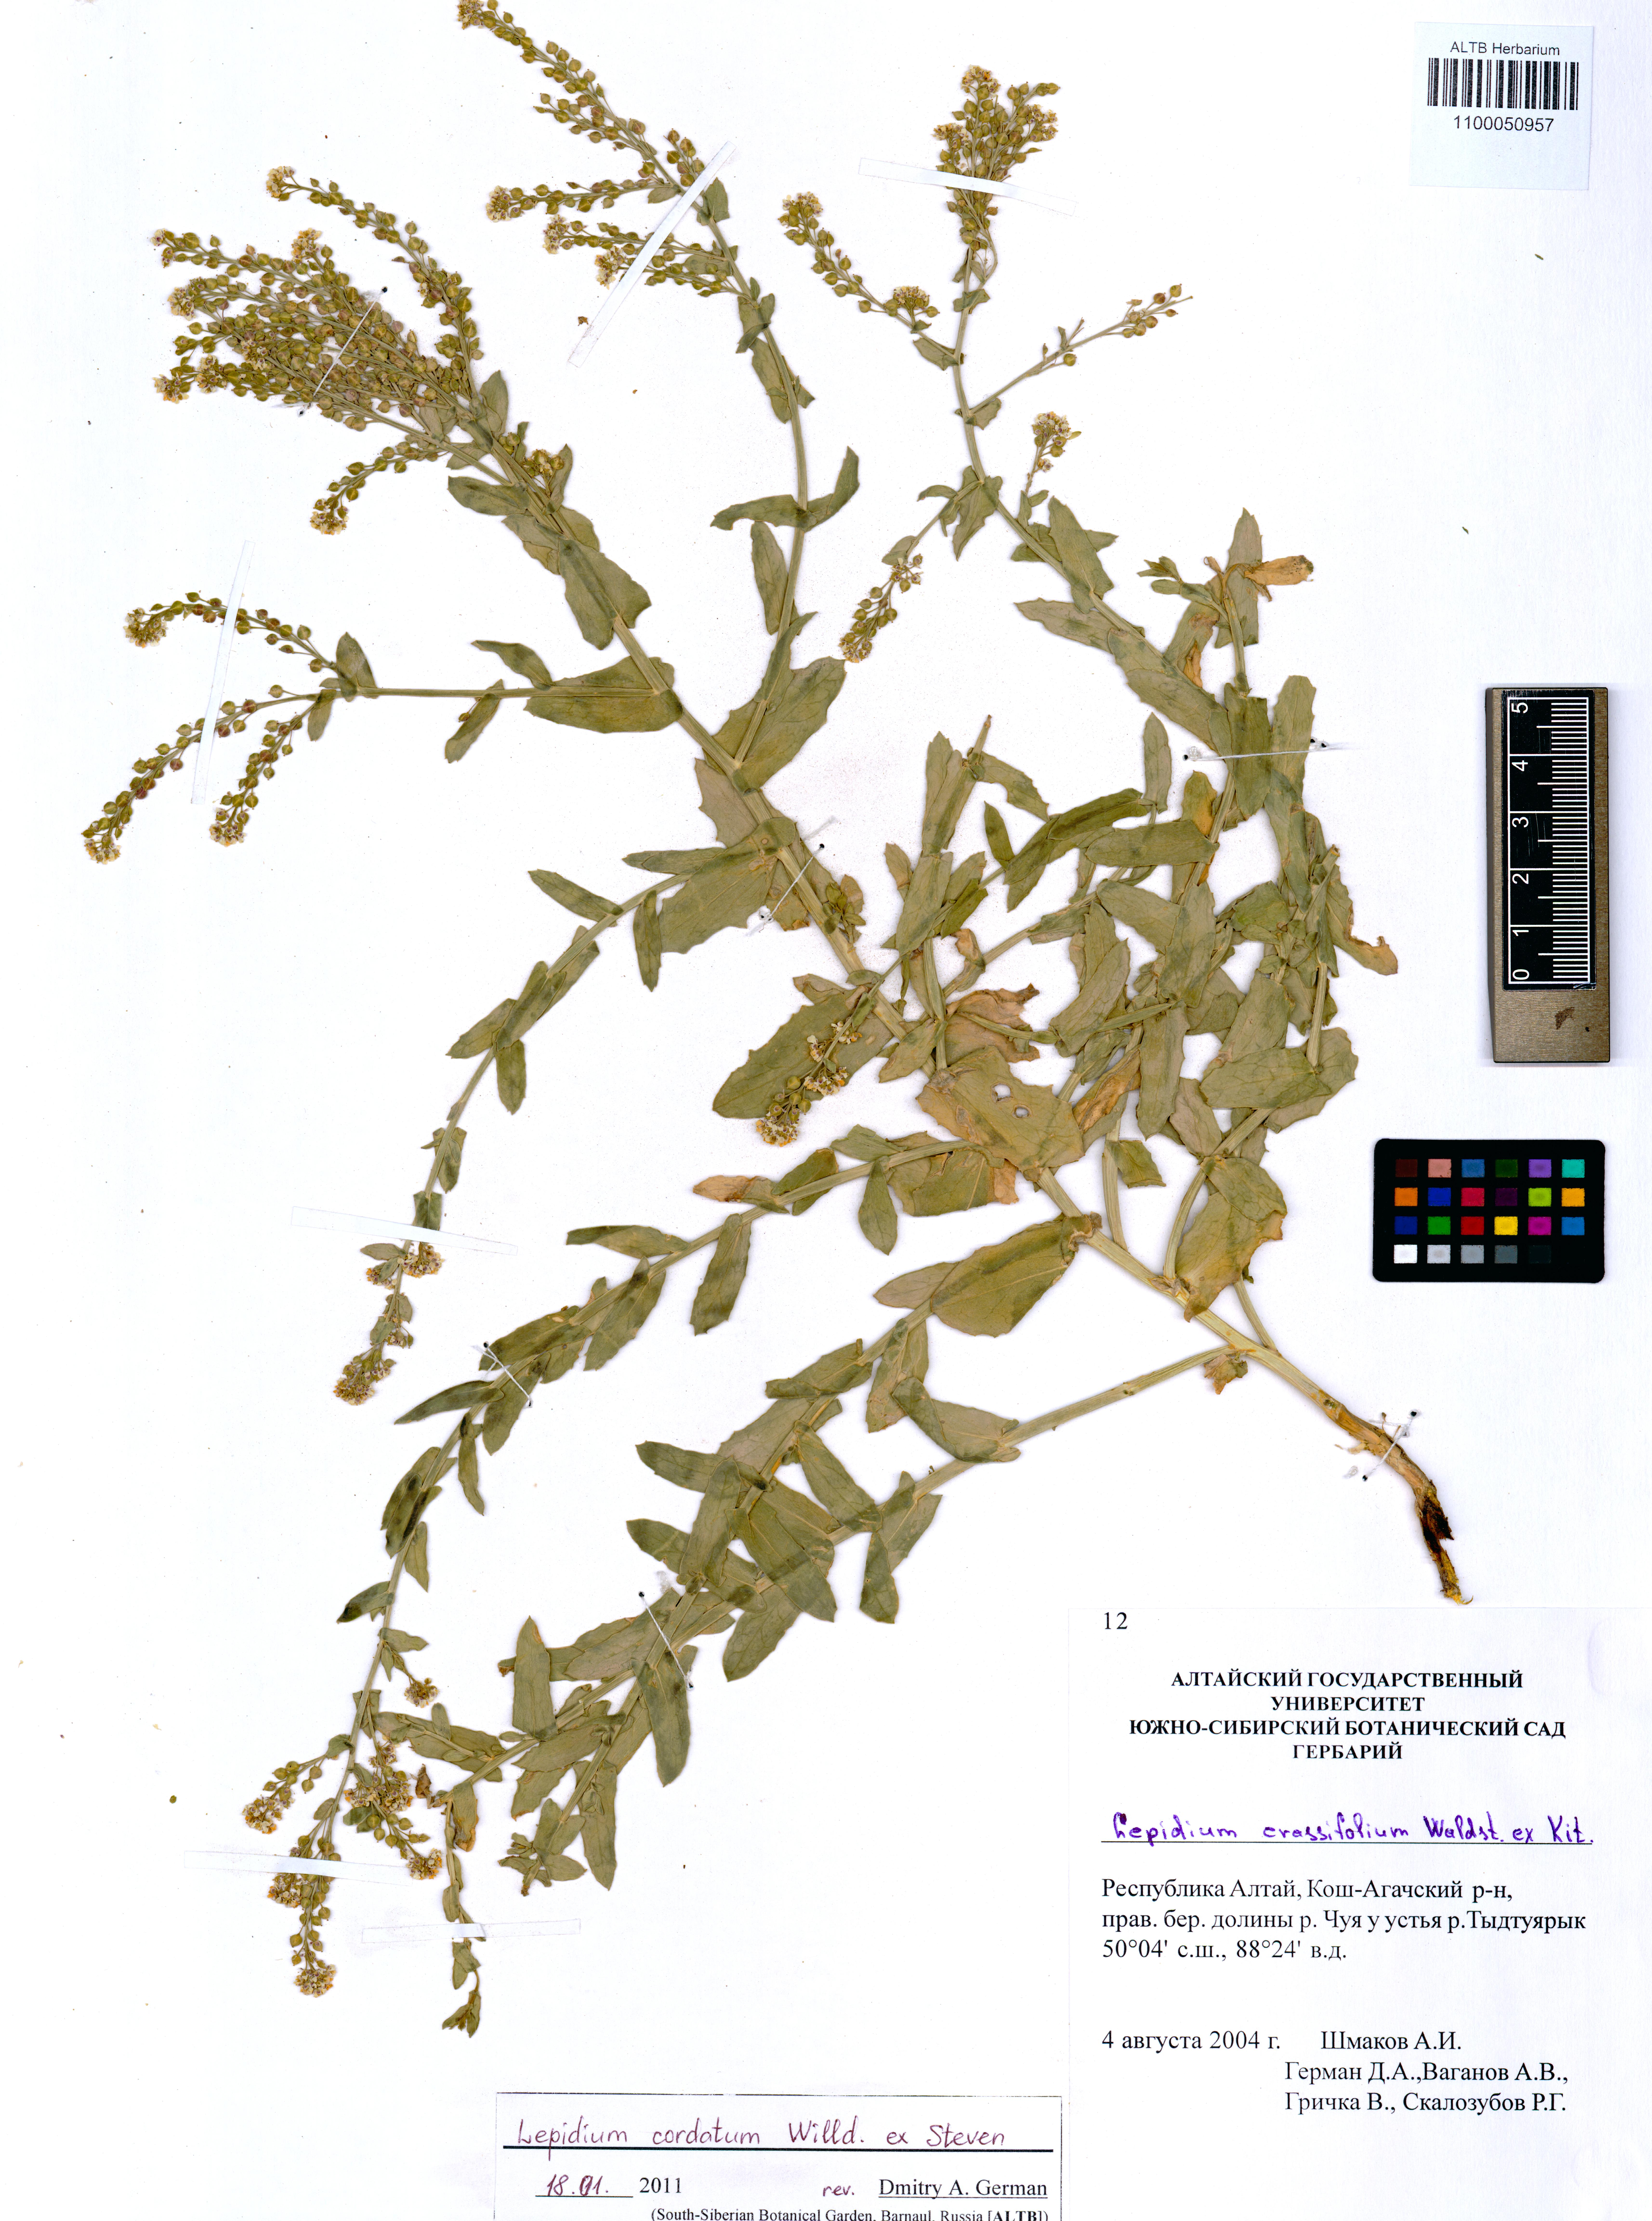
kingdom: Plantae
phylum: Tracheophyta
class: Magnoliopsida
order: Brassicales
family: Brassicaceae
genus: Lepidium
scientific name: Lepidium cordatum
